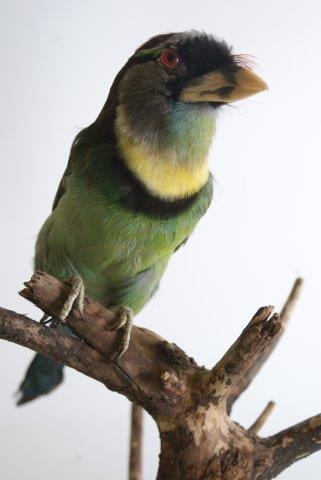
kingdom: Animalia
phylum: Chordata
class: Aves
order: Piciformes
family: Megalaimidae
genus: Psilopogon
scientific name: Psilopogon pyrolophus
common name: Fire-tufted barbet
